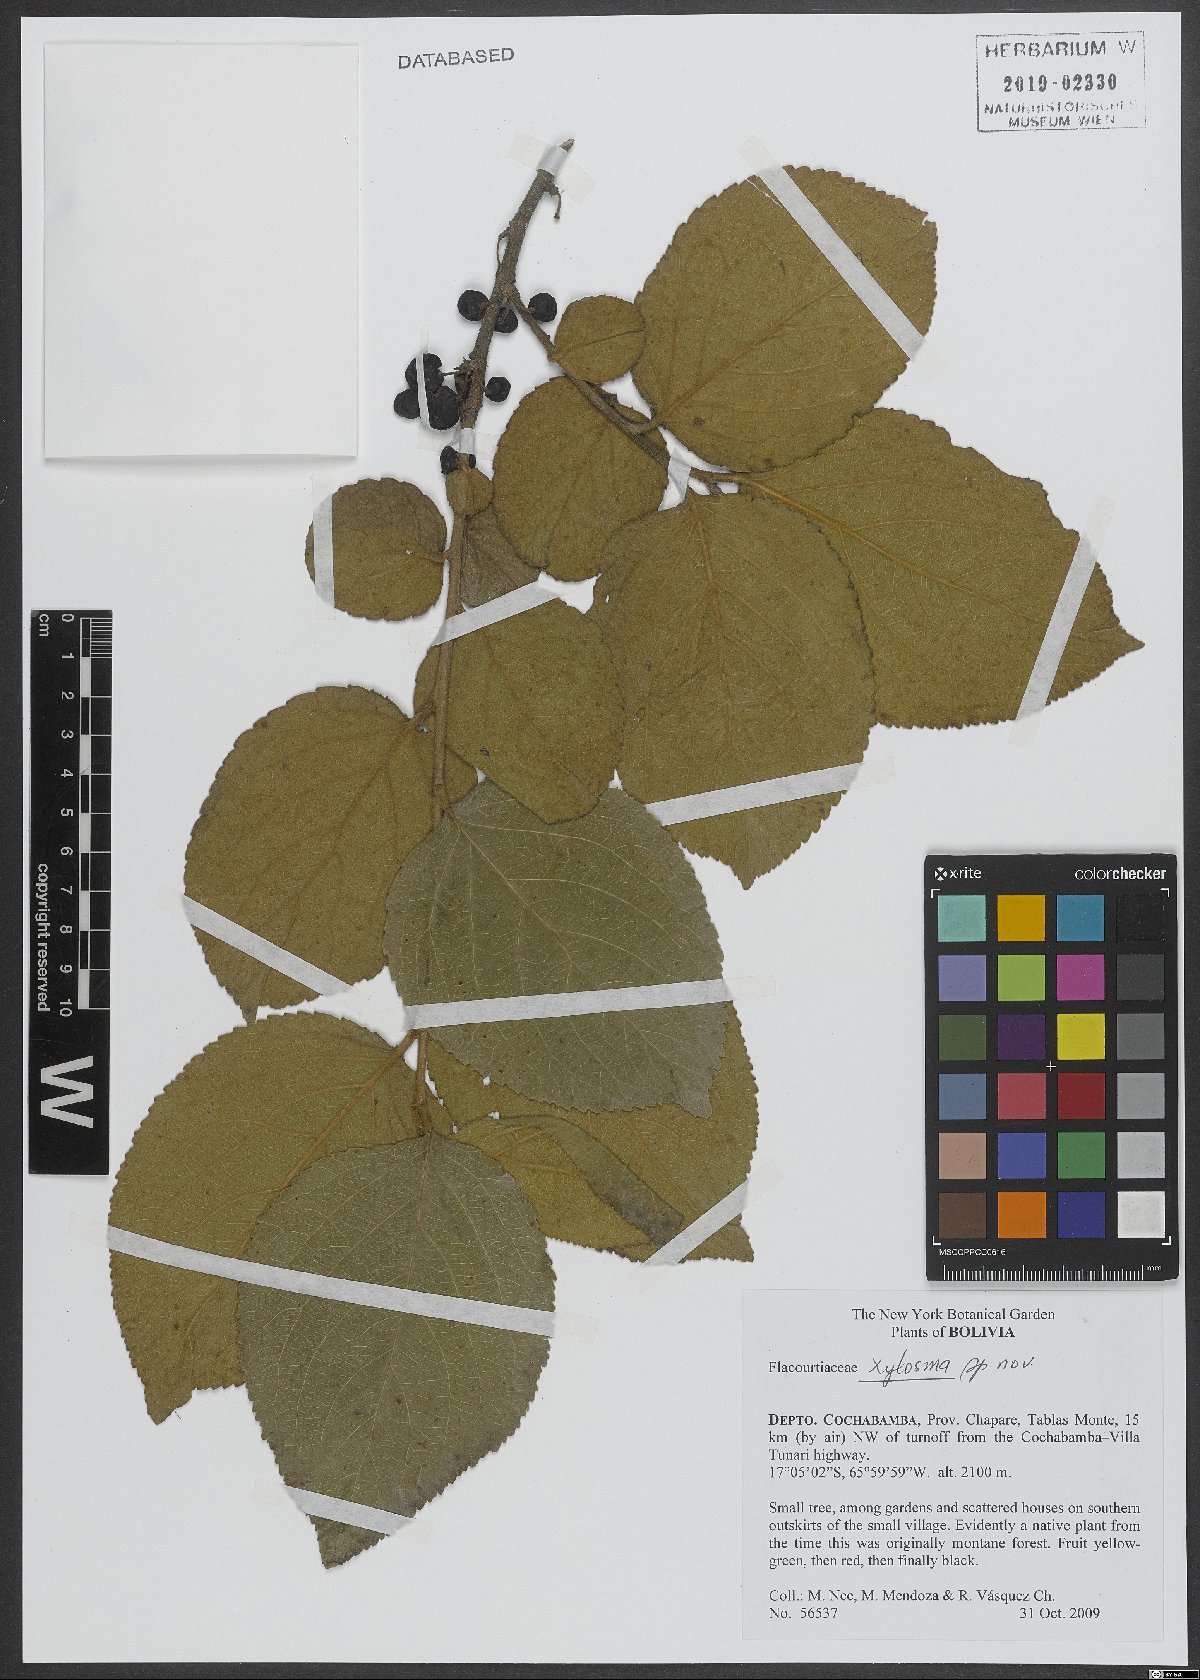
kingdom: Plantae
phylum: Tracheophyta
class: Magnoliopsida
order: Malpighiales
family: Salicaceae
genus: Xylosma
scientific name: Xylosma
